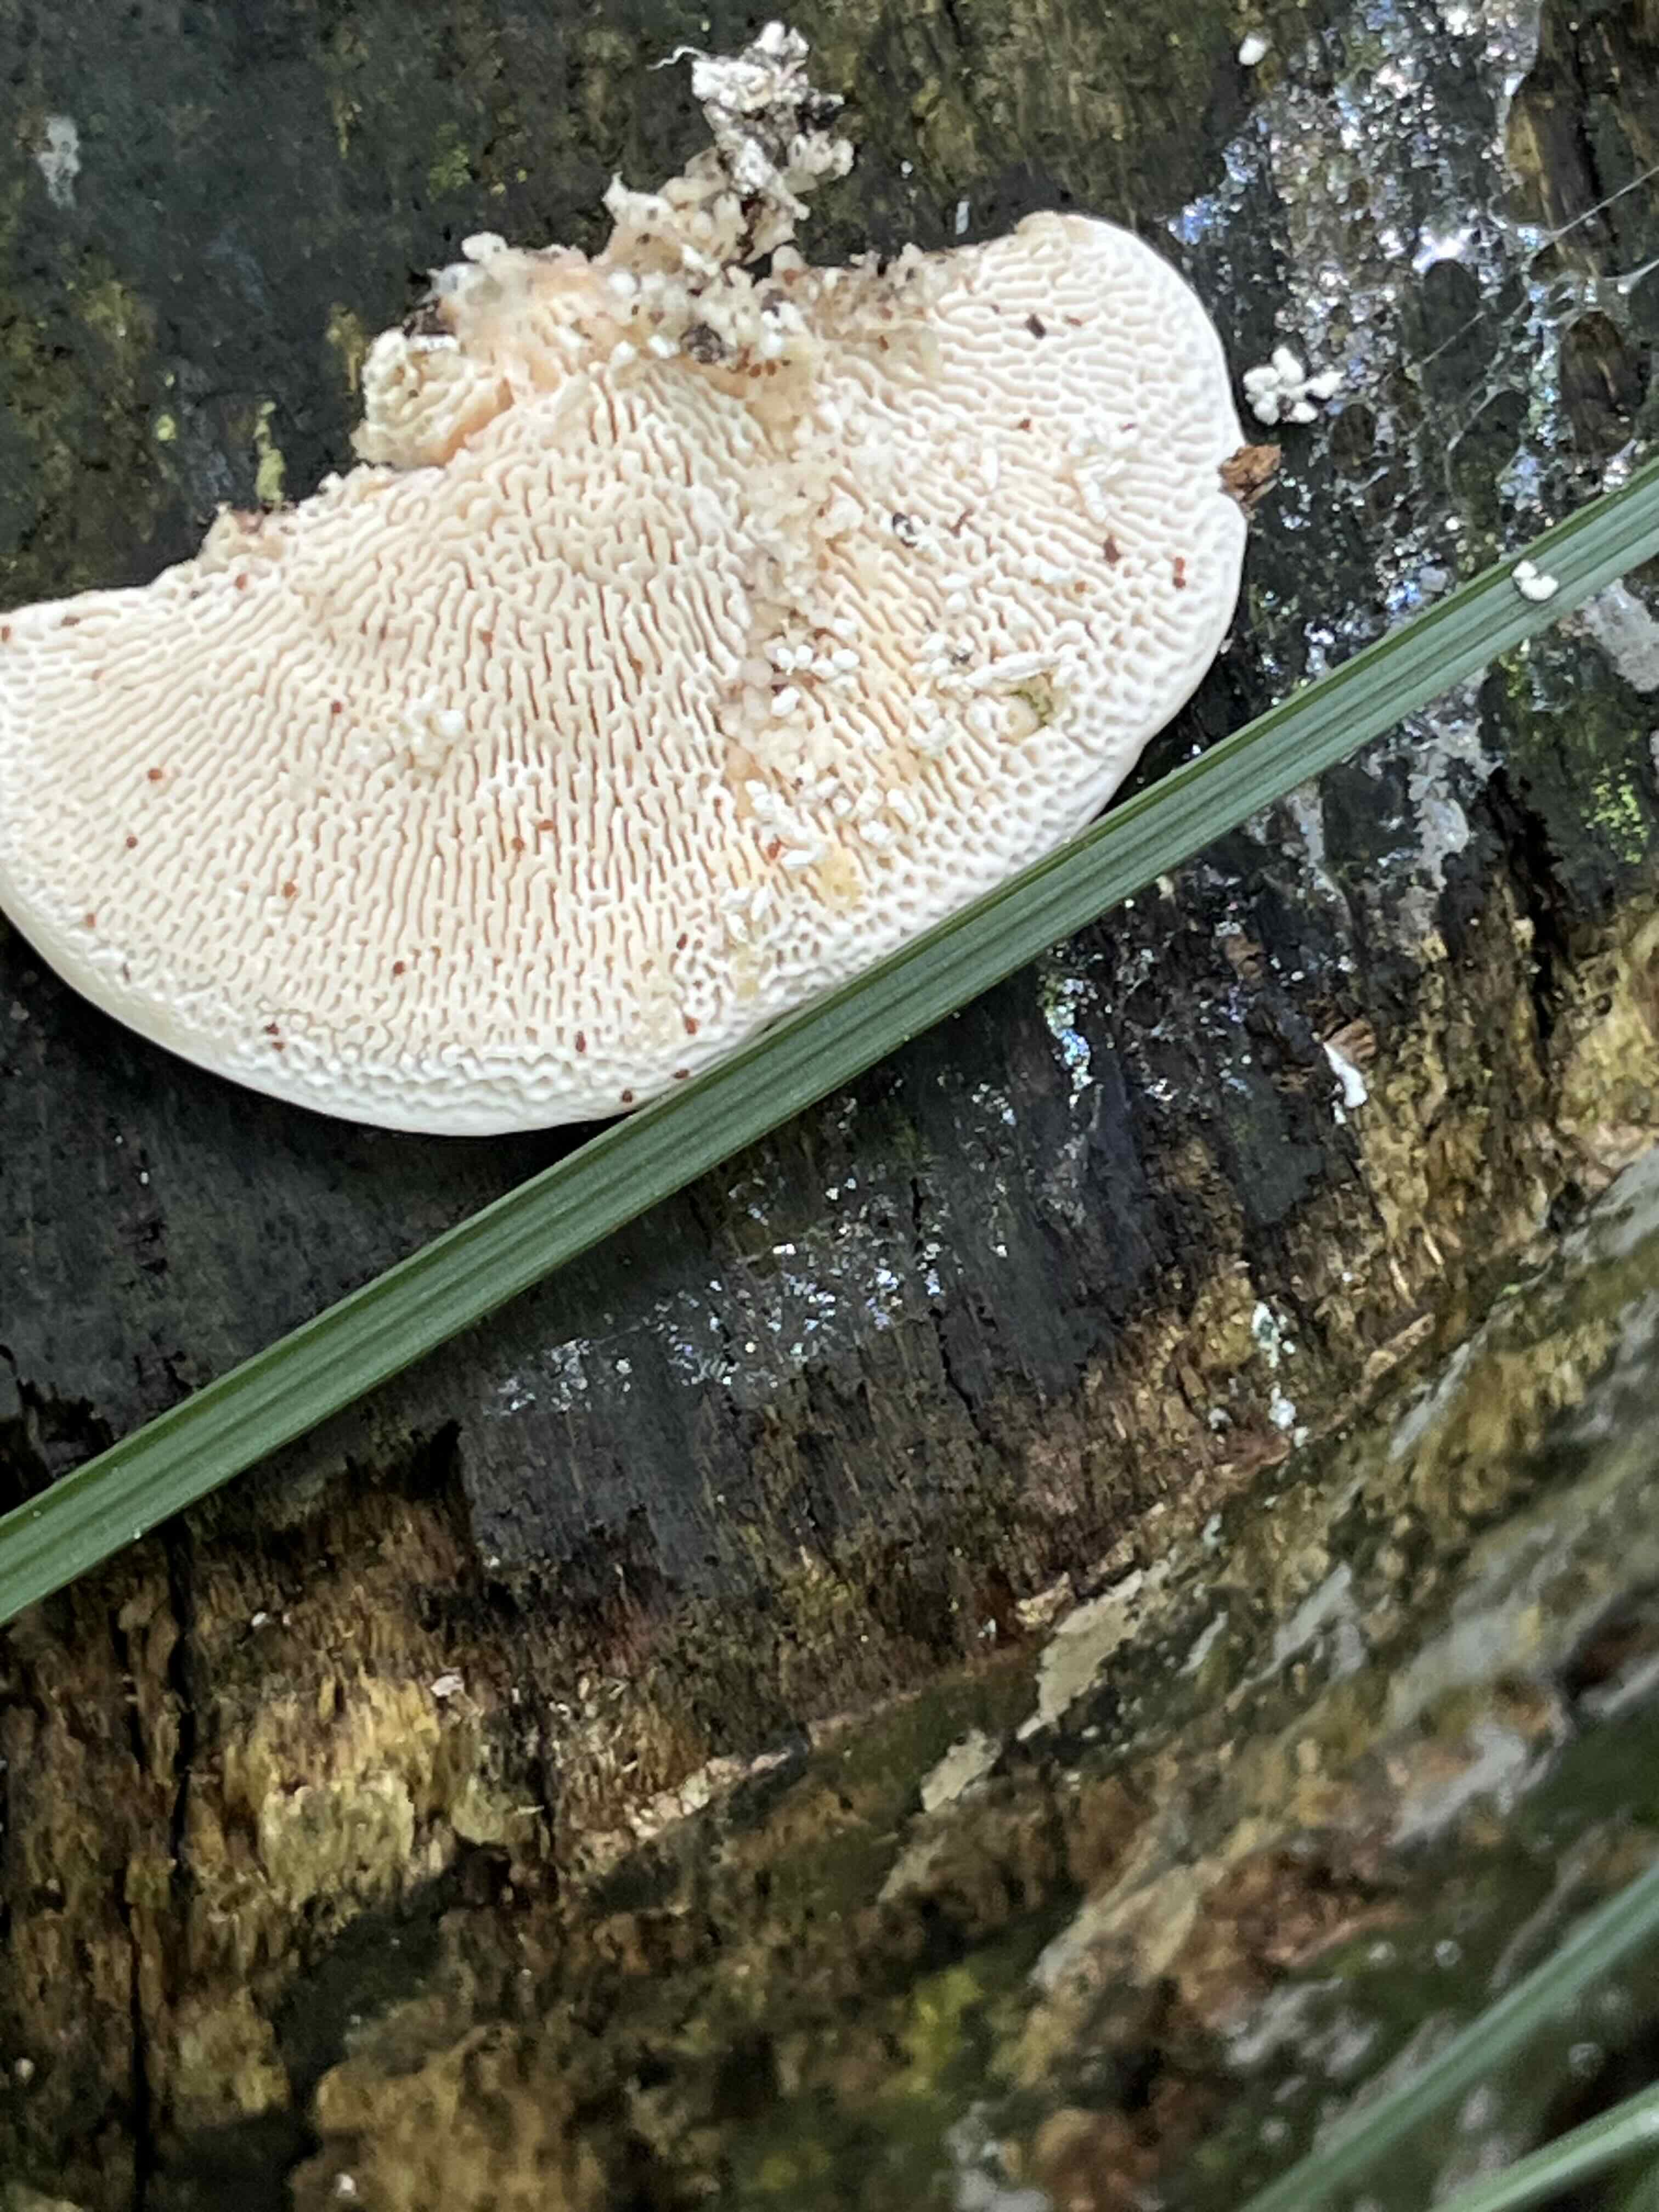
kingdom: Fungi
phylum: Basidiomycota
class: Agaricomycetes
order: Polyporales
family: Polyporaceae
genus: Trametes
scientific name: Trametes gibbosa
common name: puklet læderporesvamp
